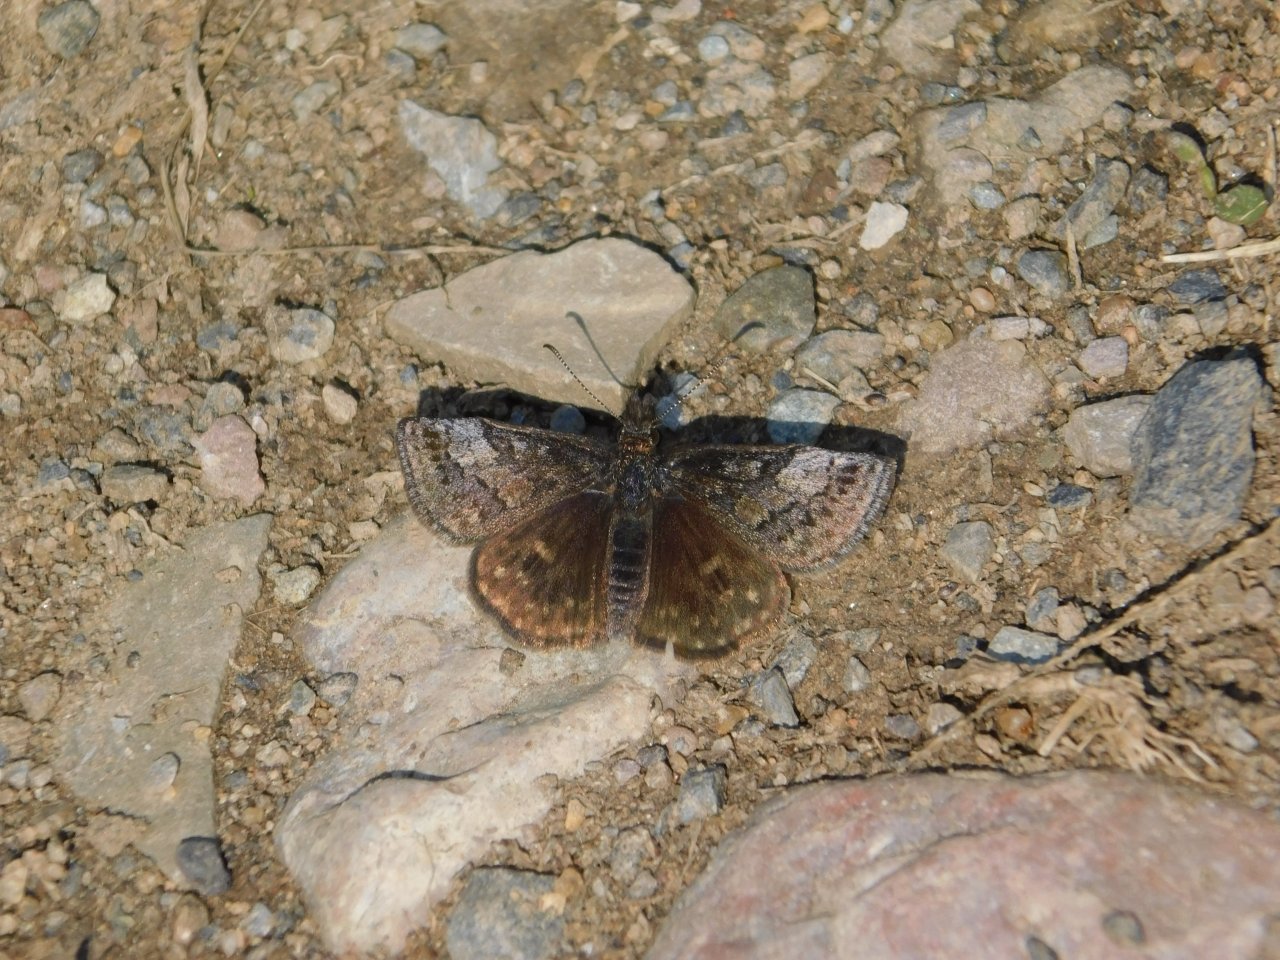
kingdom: Animalia
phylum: Arthropoda
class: Insecta
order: Lepidoptera
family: Hesperiidae
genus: Erynnis
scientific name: Erynnis icelus
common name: Dreamy Duskywing
